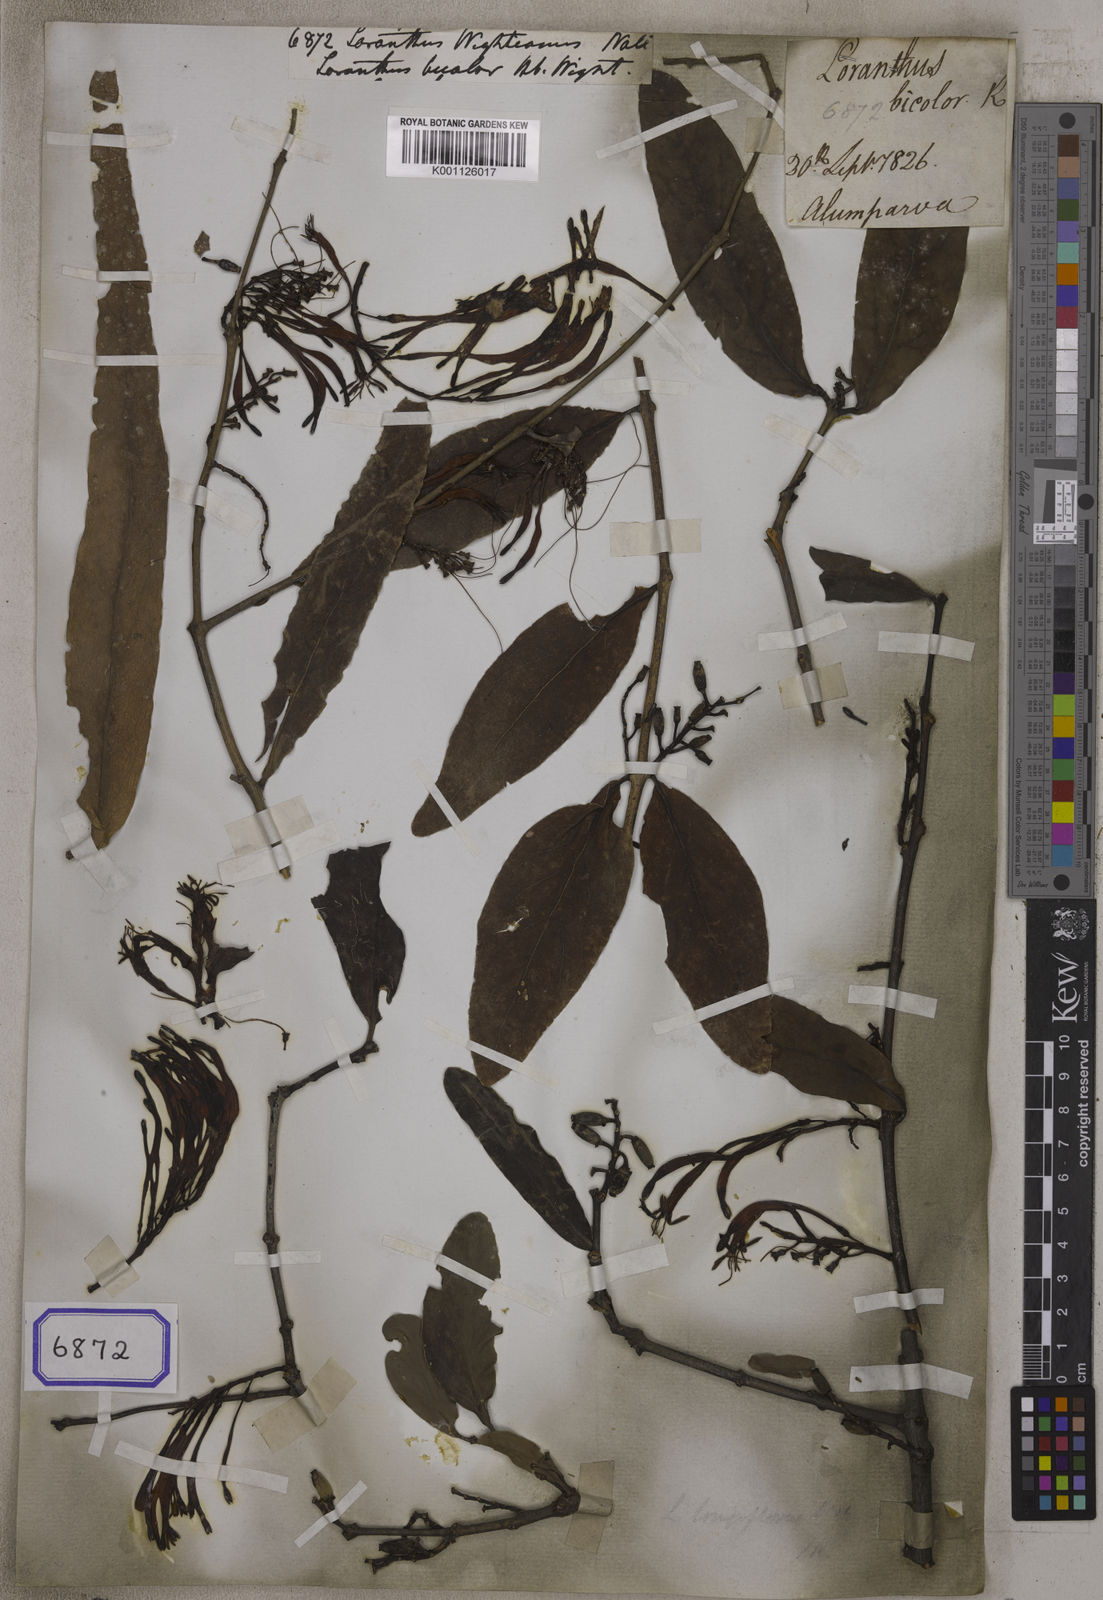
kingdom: Plantae
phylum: Tracheophyta
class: Magnoliopsida
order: Santalales
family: Loranthaceae
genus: Dendrophthoe
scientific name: Dendrophthoe falcata
